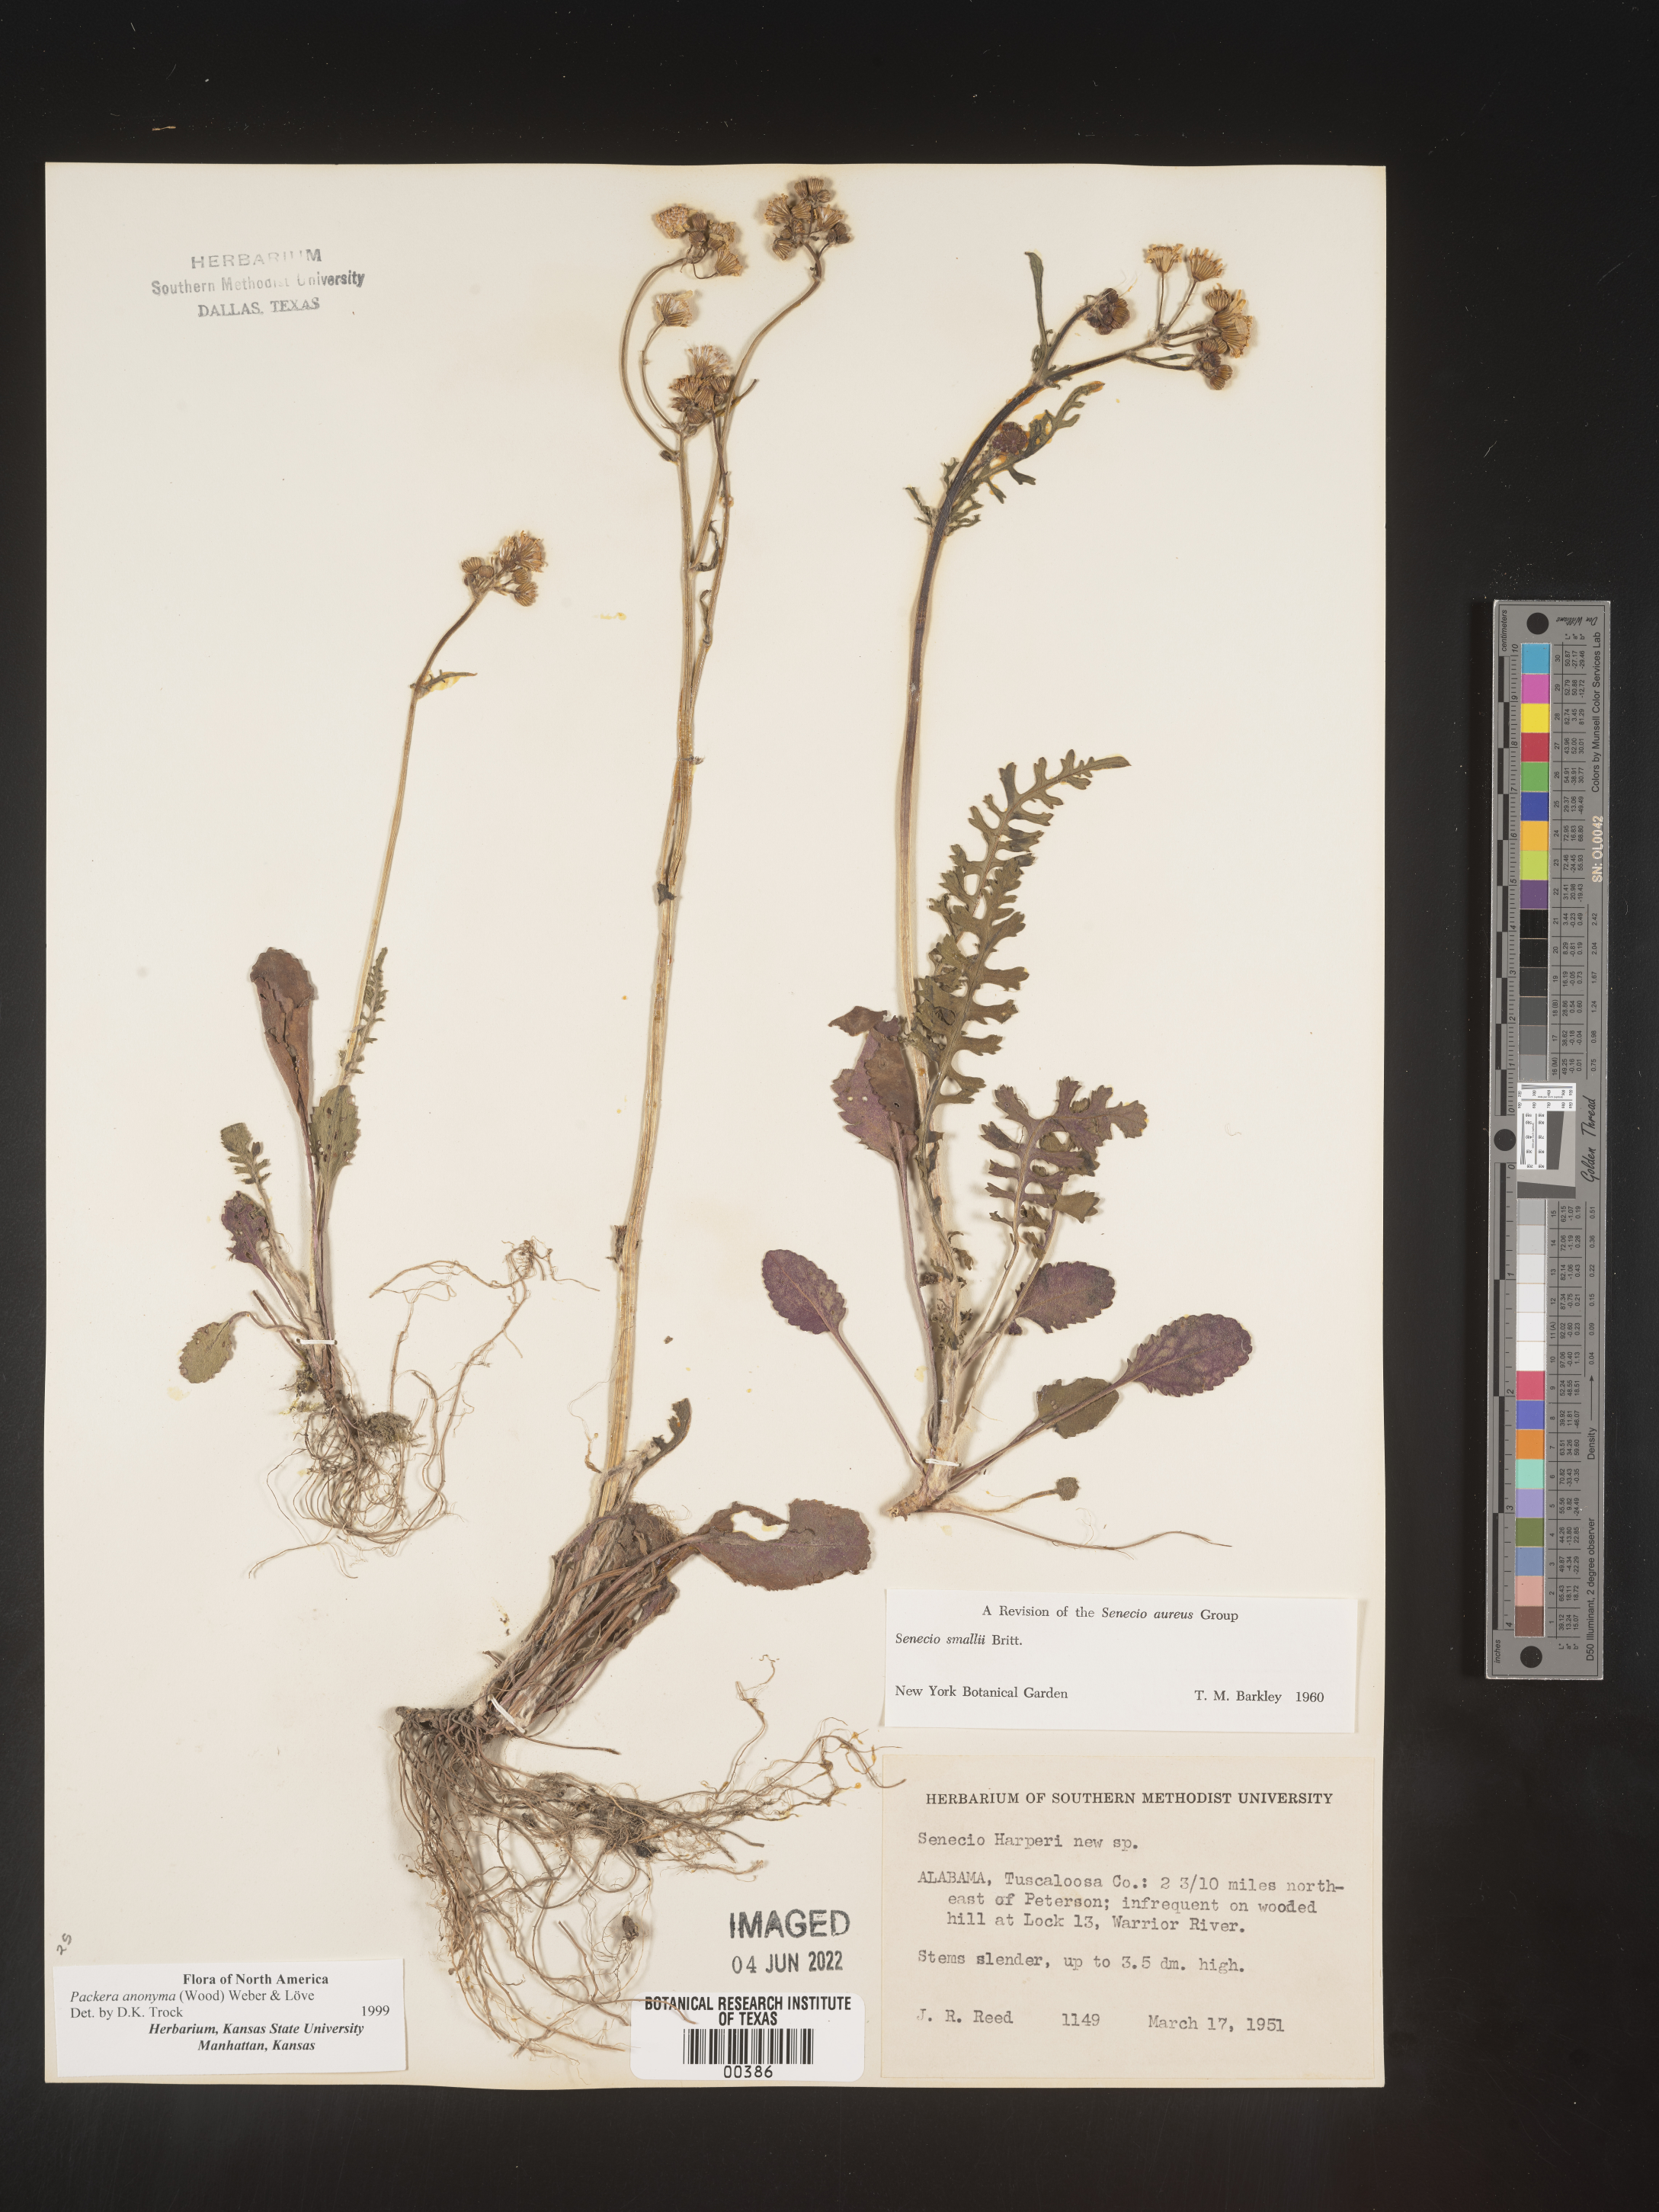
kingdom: Plantae
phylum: Tracheophyta
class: Magnoliopsida
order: Asterales
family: Asteraceae
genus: Packera
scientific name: Packera anonyma
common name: Small ragwort
